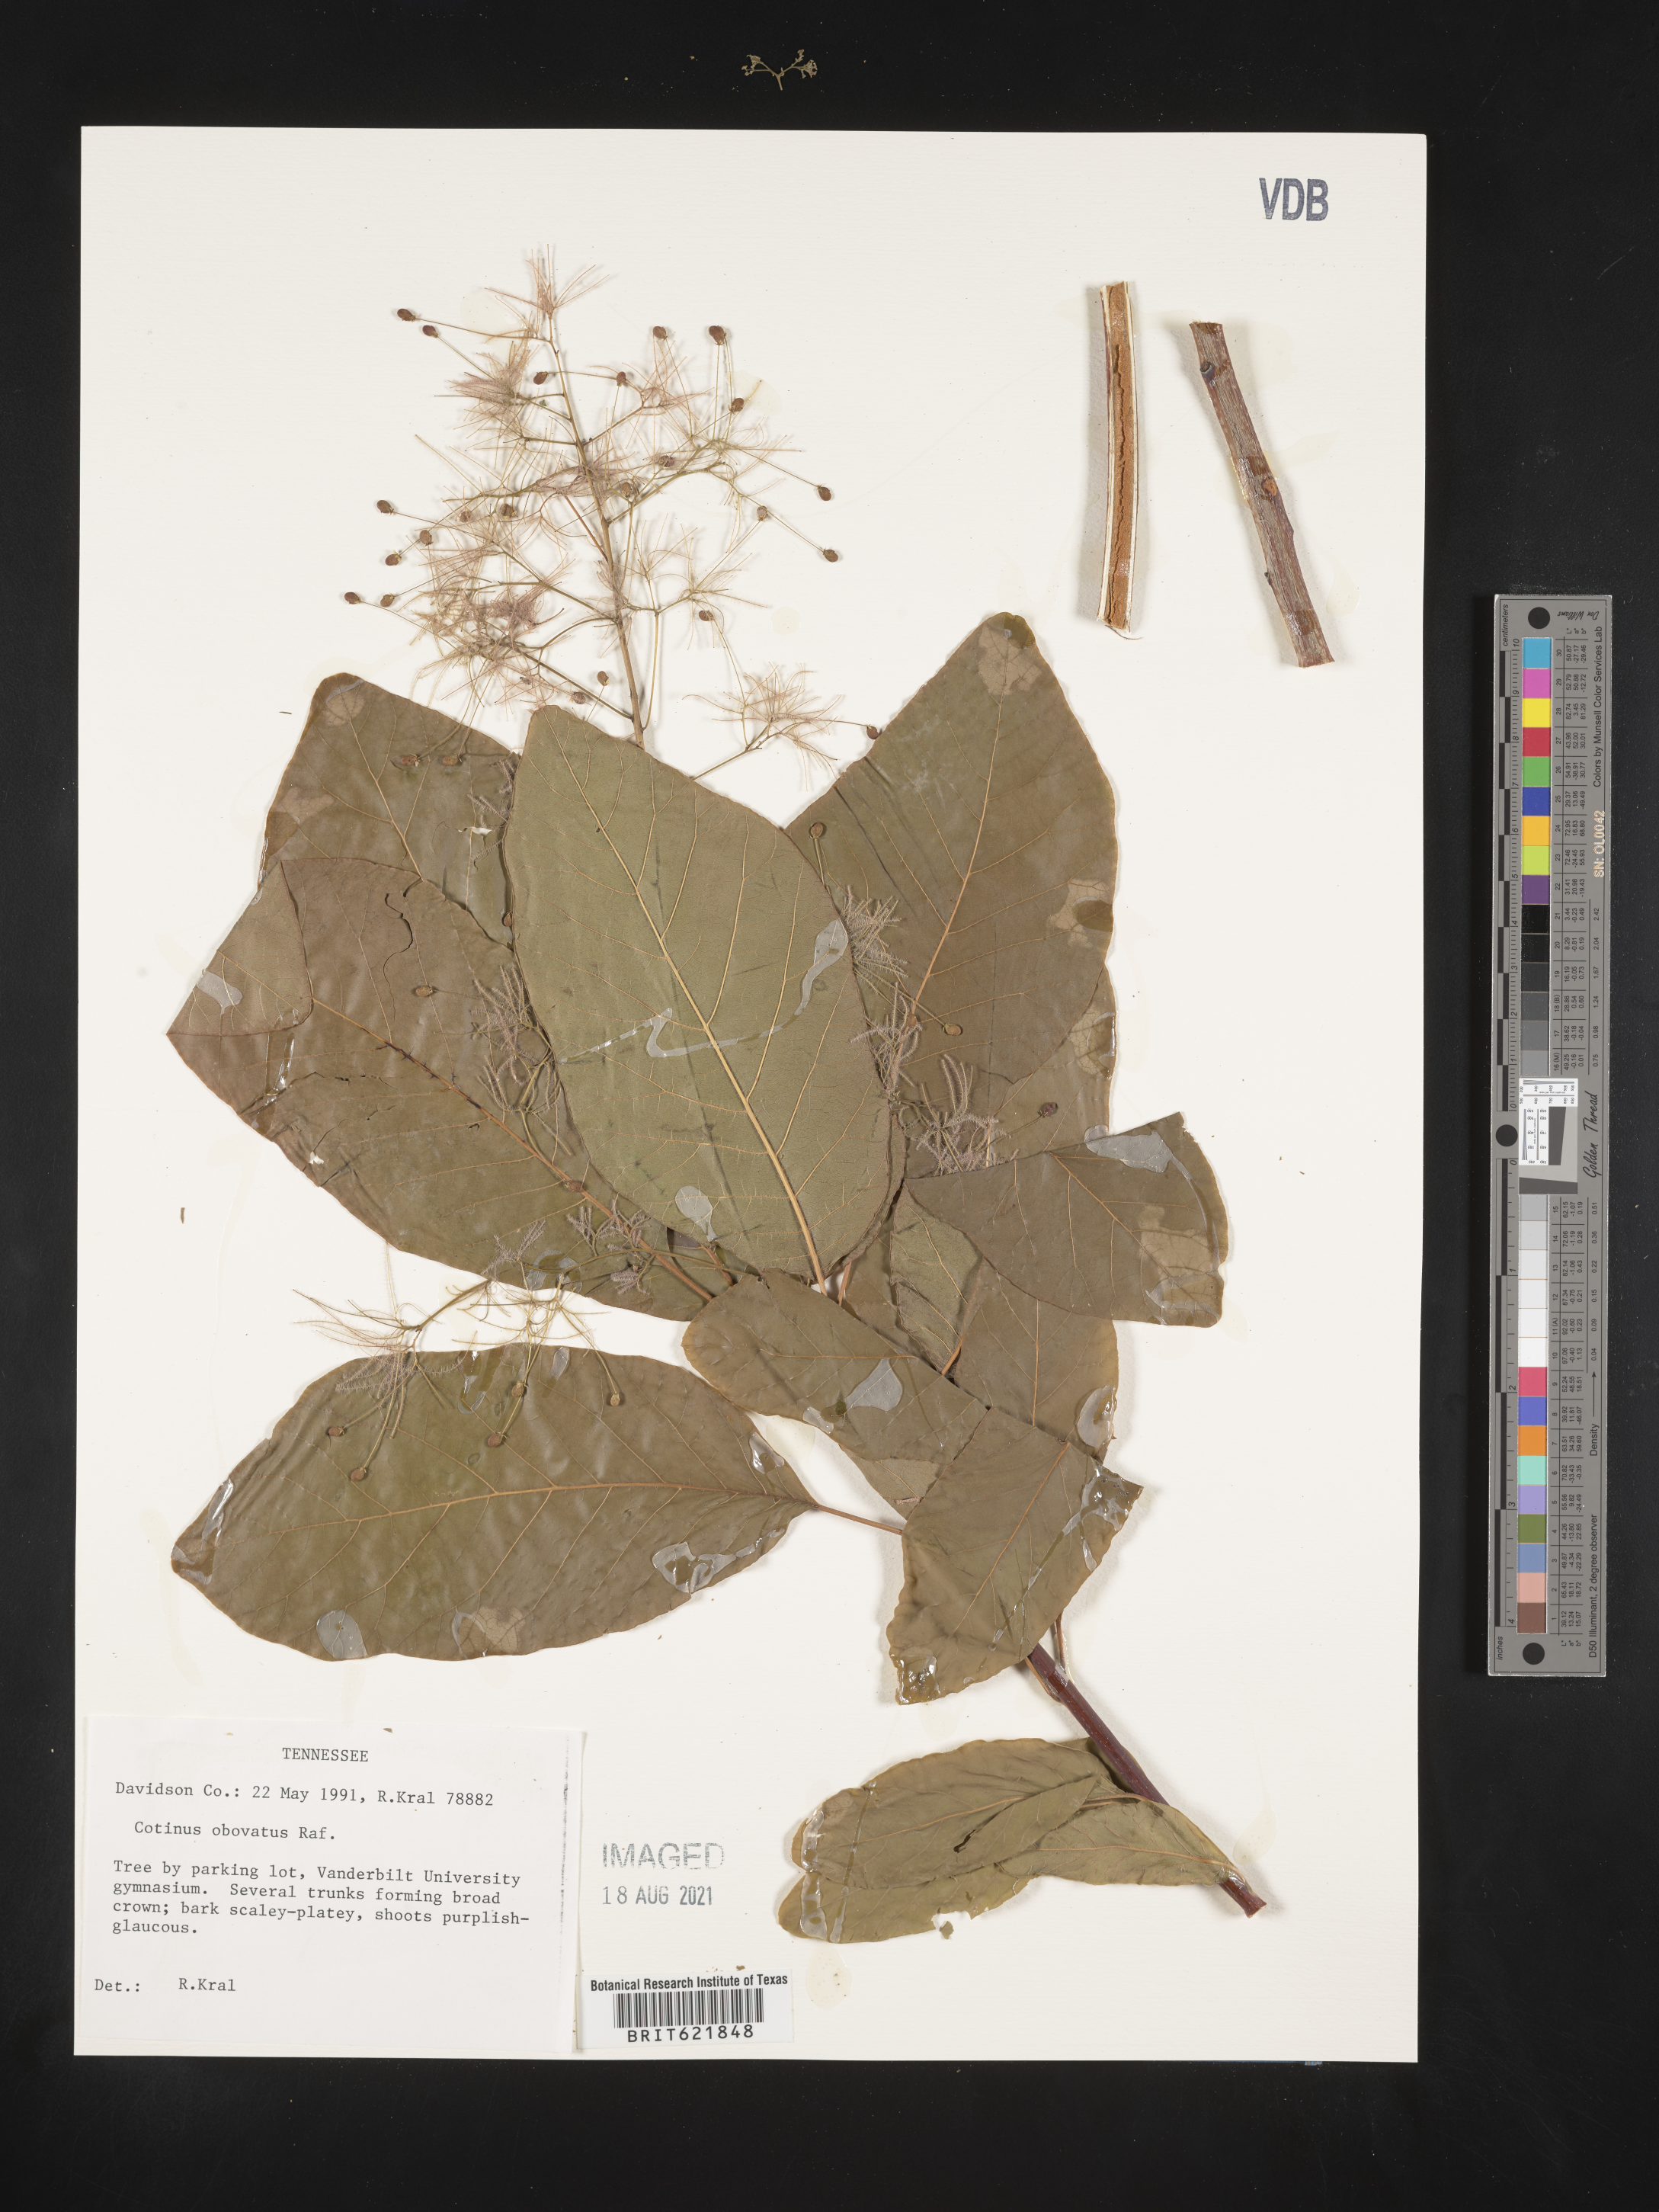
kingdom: Plantae
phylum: Tracheophyta
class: Magnoliopsida
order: Sapindales
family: Anacardiaceae
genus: Cotinus
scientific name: Cotinus obovatus
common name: Chittamwood
